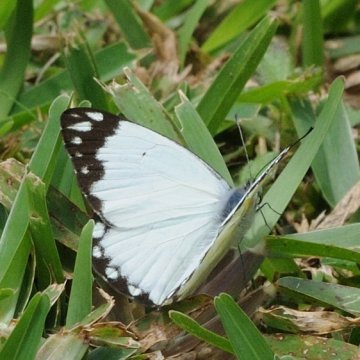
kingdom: Animalia
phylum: Arthropoda
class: Insecta
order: Lepidoptera
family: Pieridae
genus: Belenois
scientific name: Belenois creona
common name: African Caper
